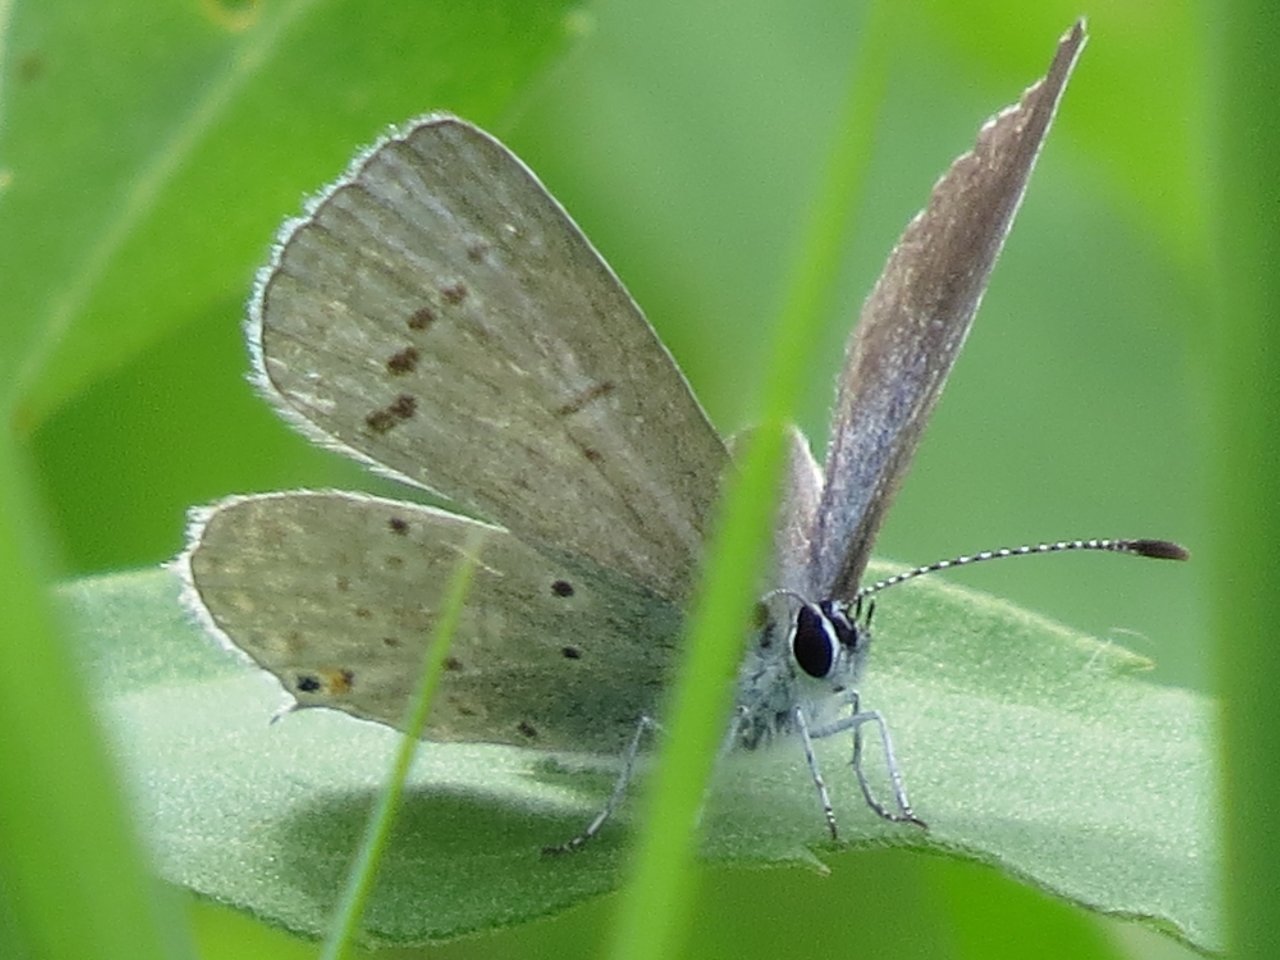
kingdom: Animalia
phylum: Arthropoda
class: Insecta
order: Lepidoptera
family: Lycaenidae
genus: Elkalyce
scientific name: Elkalyce amyntula
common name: Western Tailed-Blue
